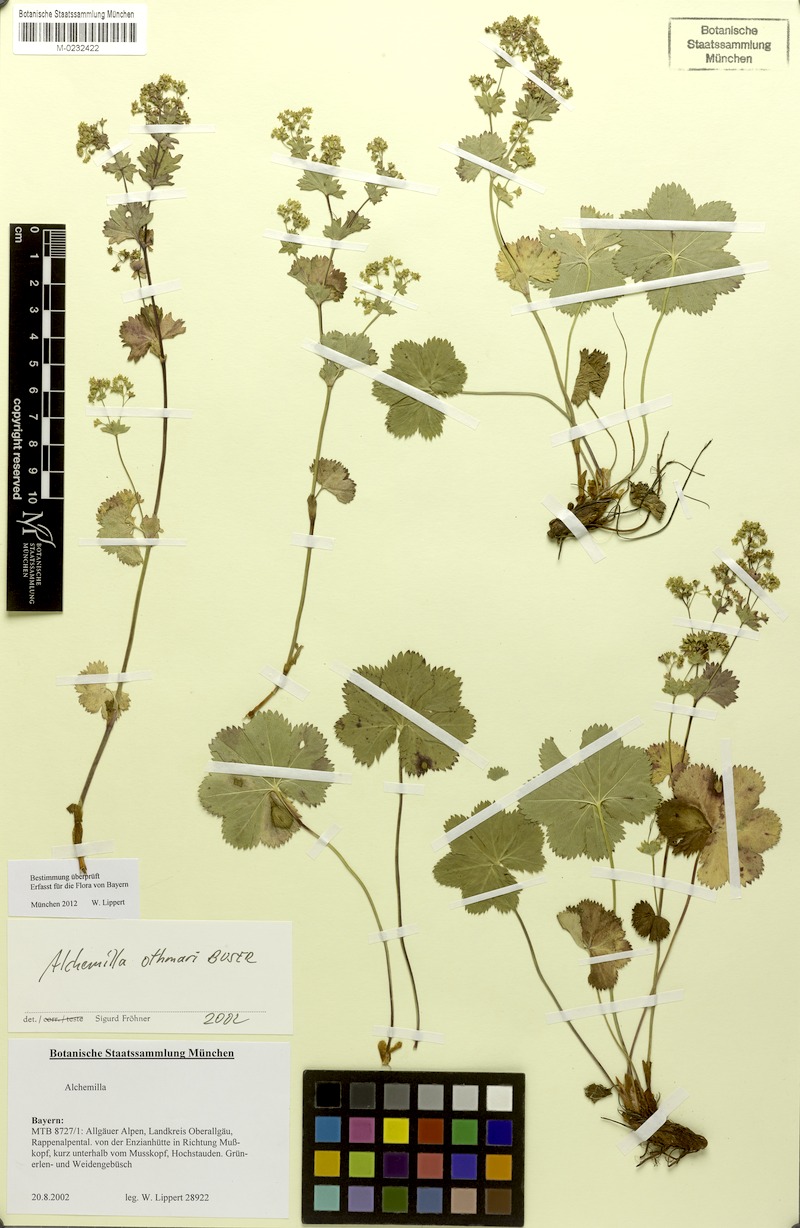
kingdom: Plantae
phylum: Tracheophyta
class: Magnoliopsida
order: Rosales
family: Rosaceae
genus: Alchemilla
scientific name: Alchemilla othmarii
